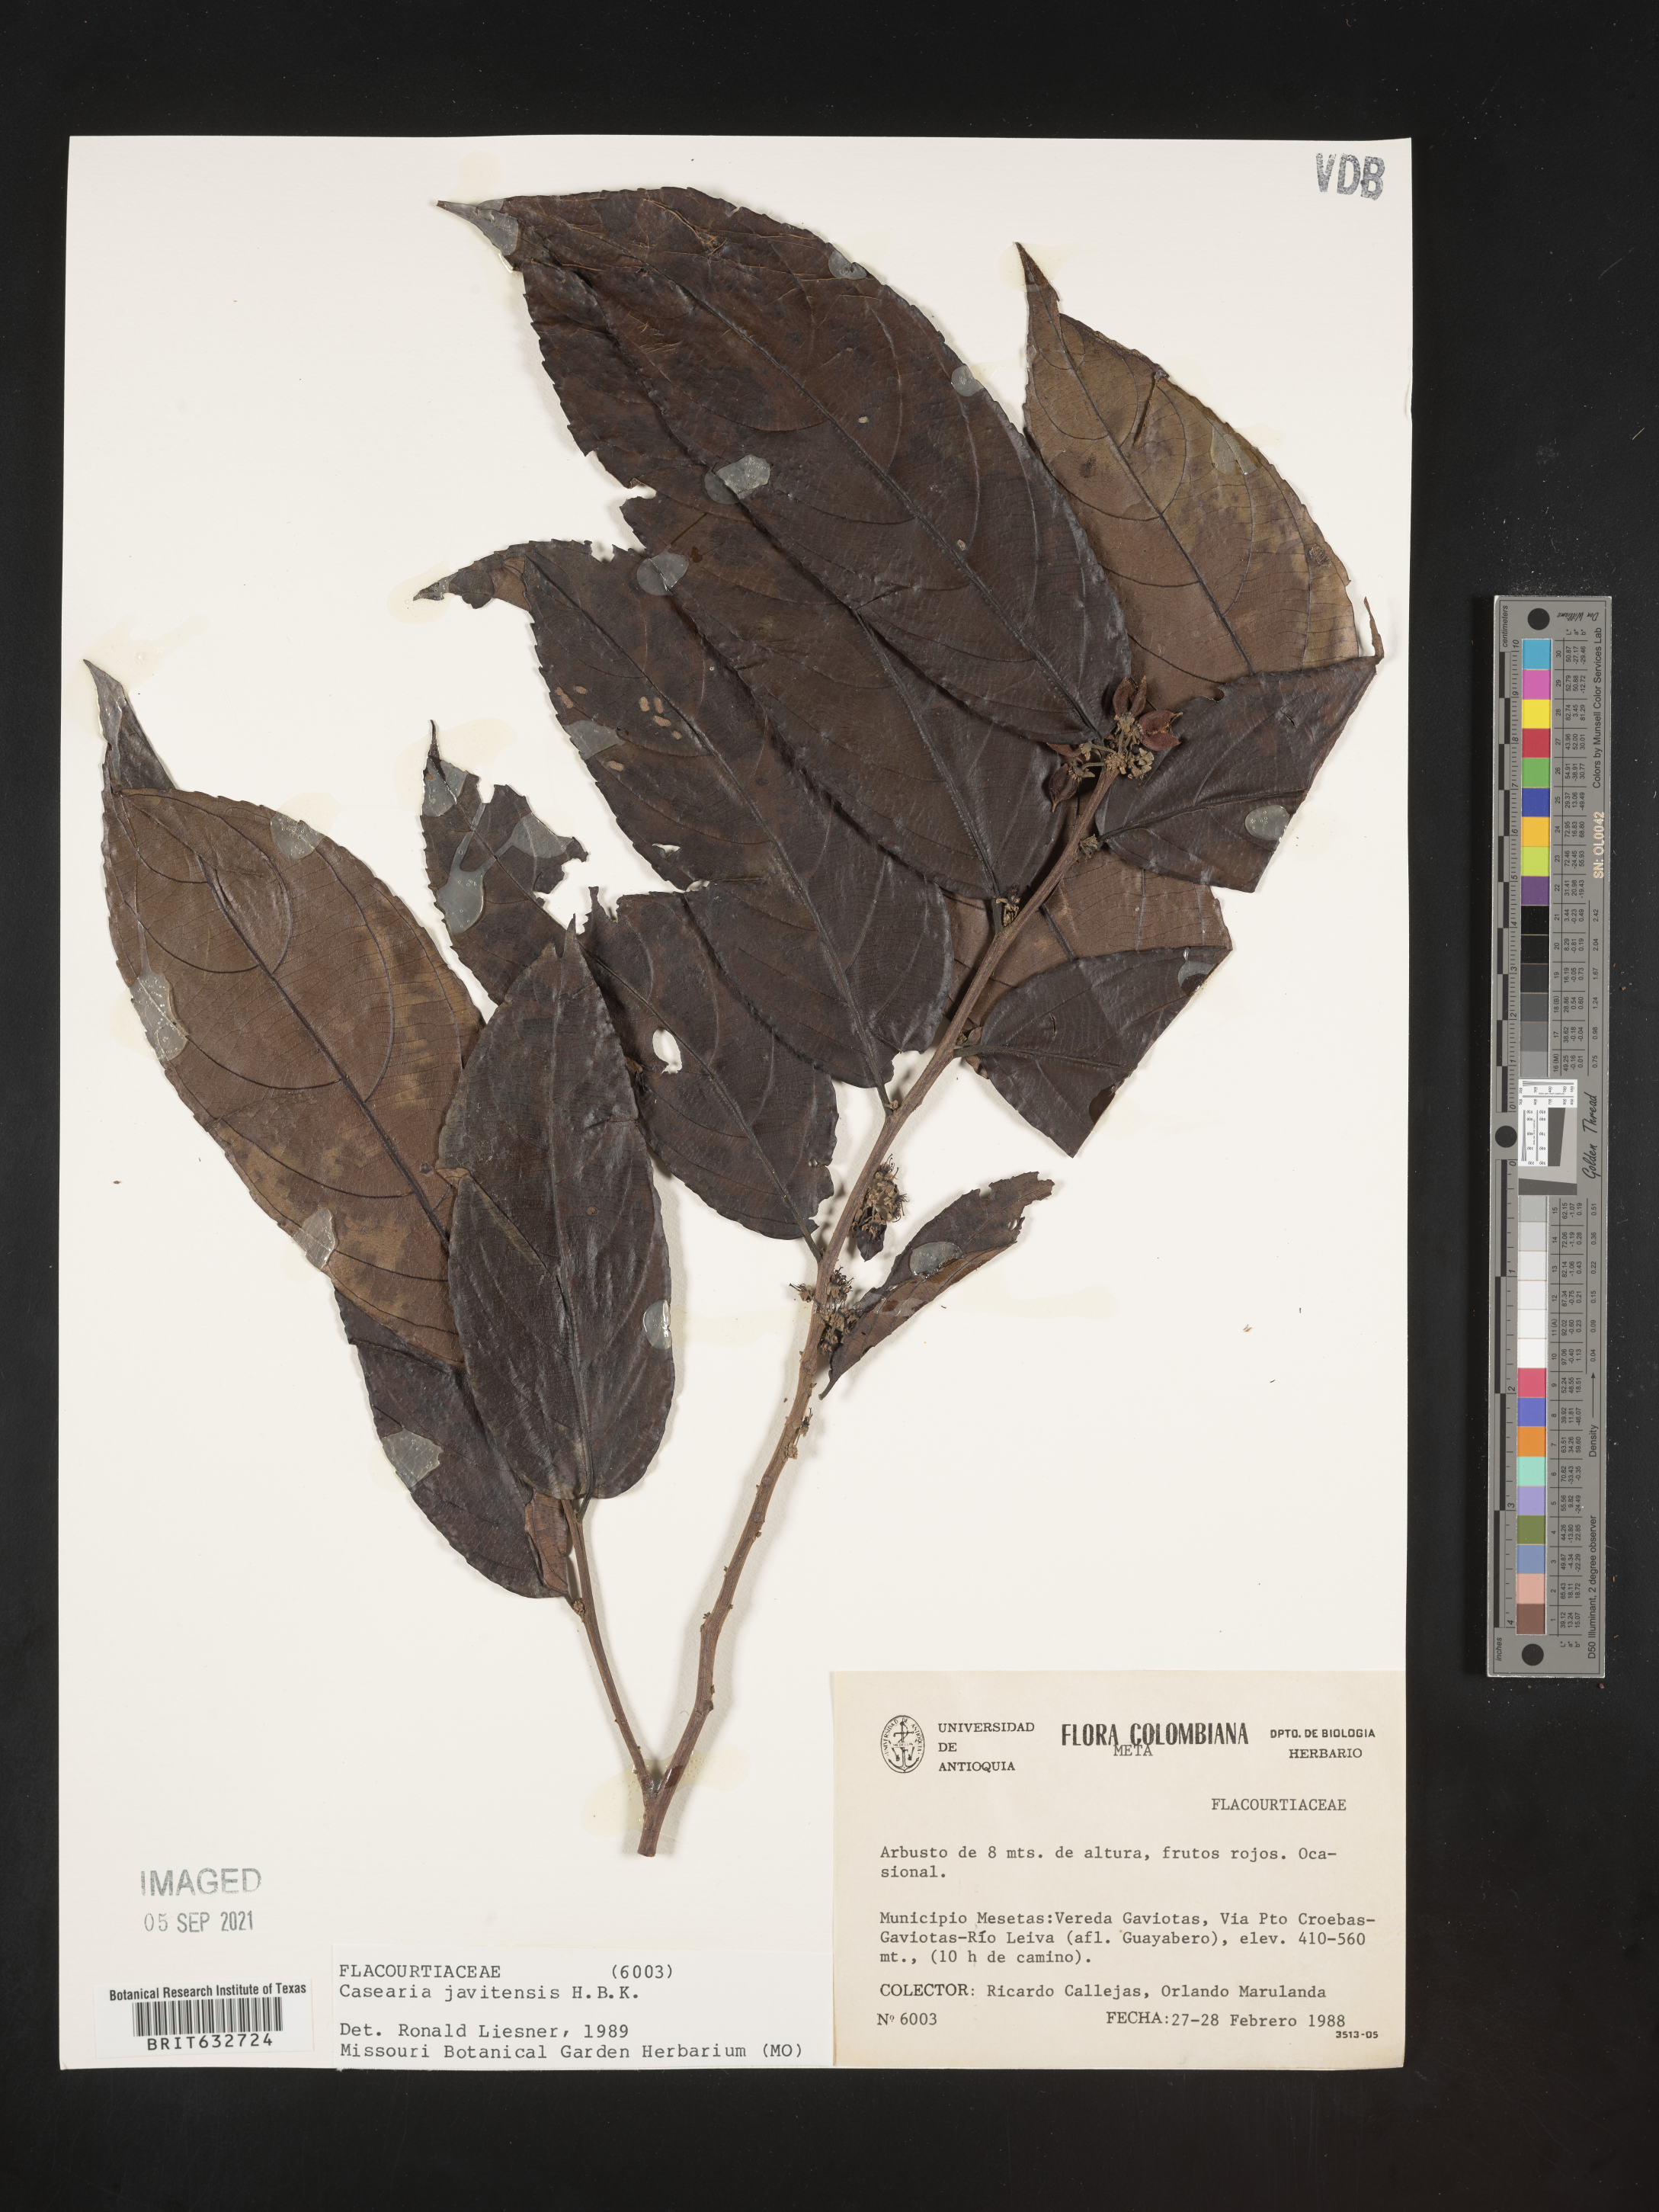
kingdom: Plantae
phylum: Tracheophyta
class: Magnoliopsida
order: Malpighiales
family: Salicaceae
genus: Casearia
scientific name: Casearia
